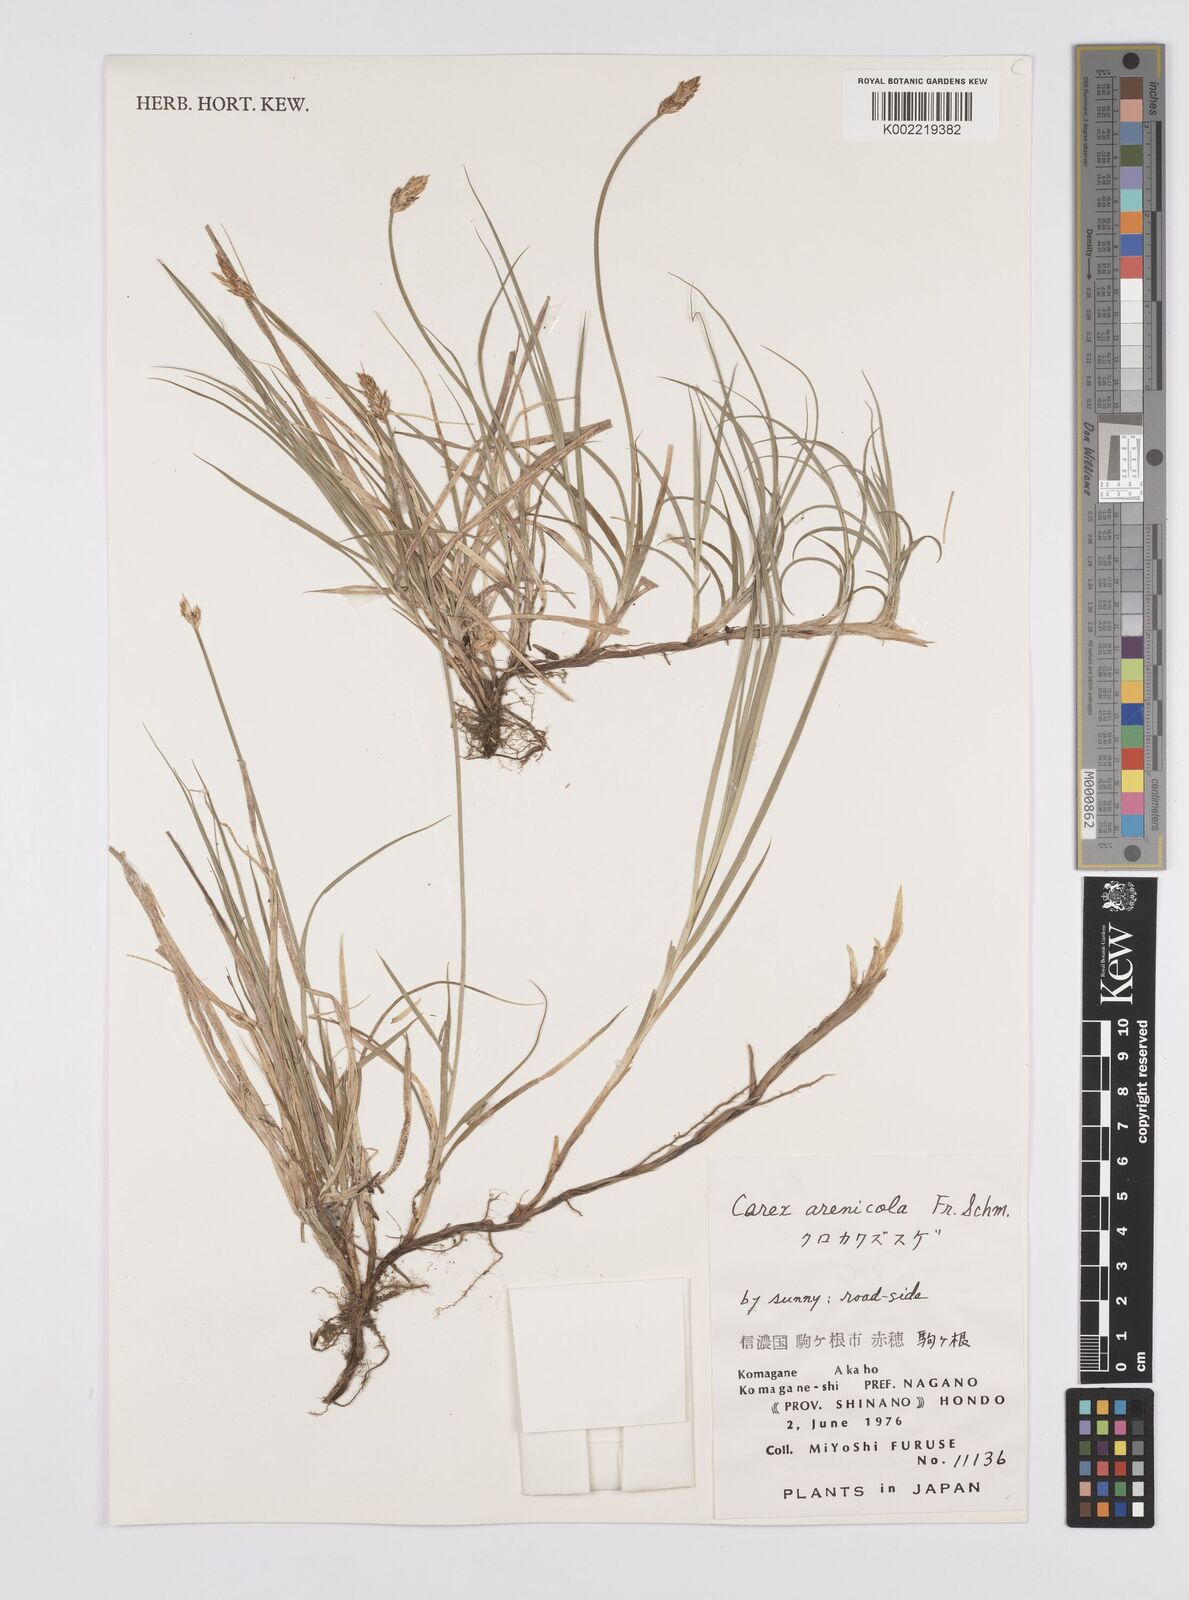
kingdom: Plantae
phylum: Tracheophyta
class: Liliopsida
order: Poales
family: Cyperaceae
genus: Carex
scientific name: Carex arenicola
